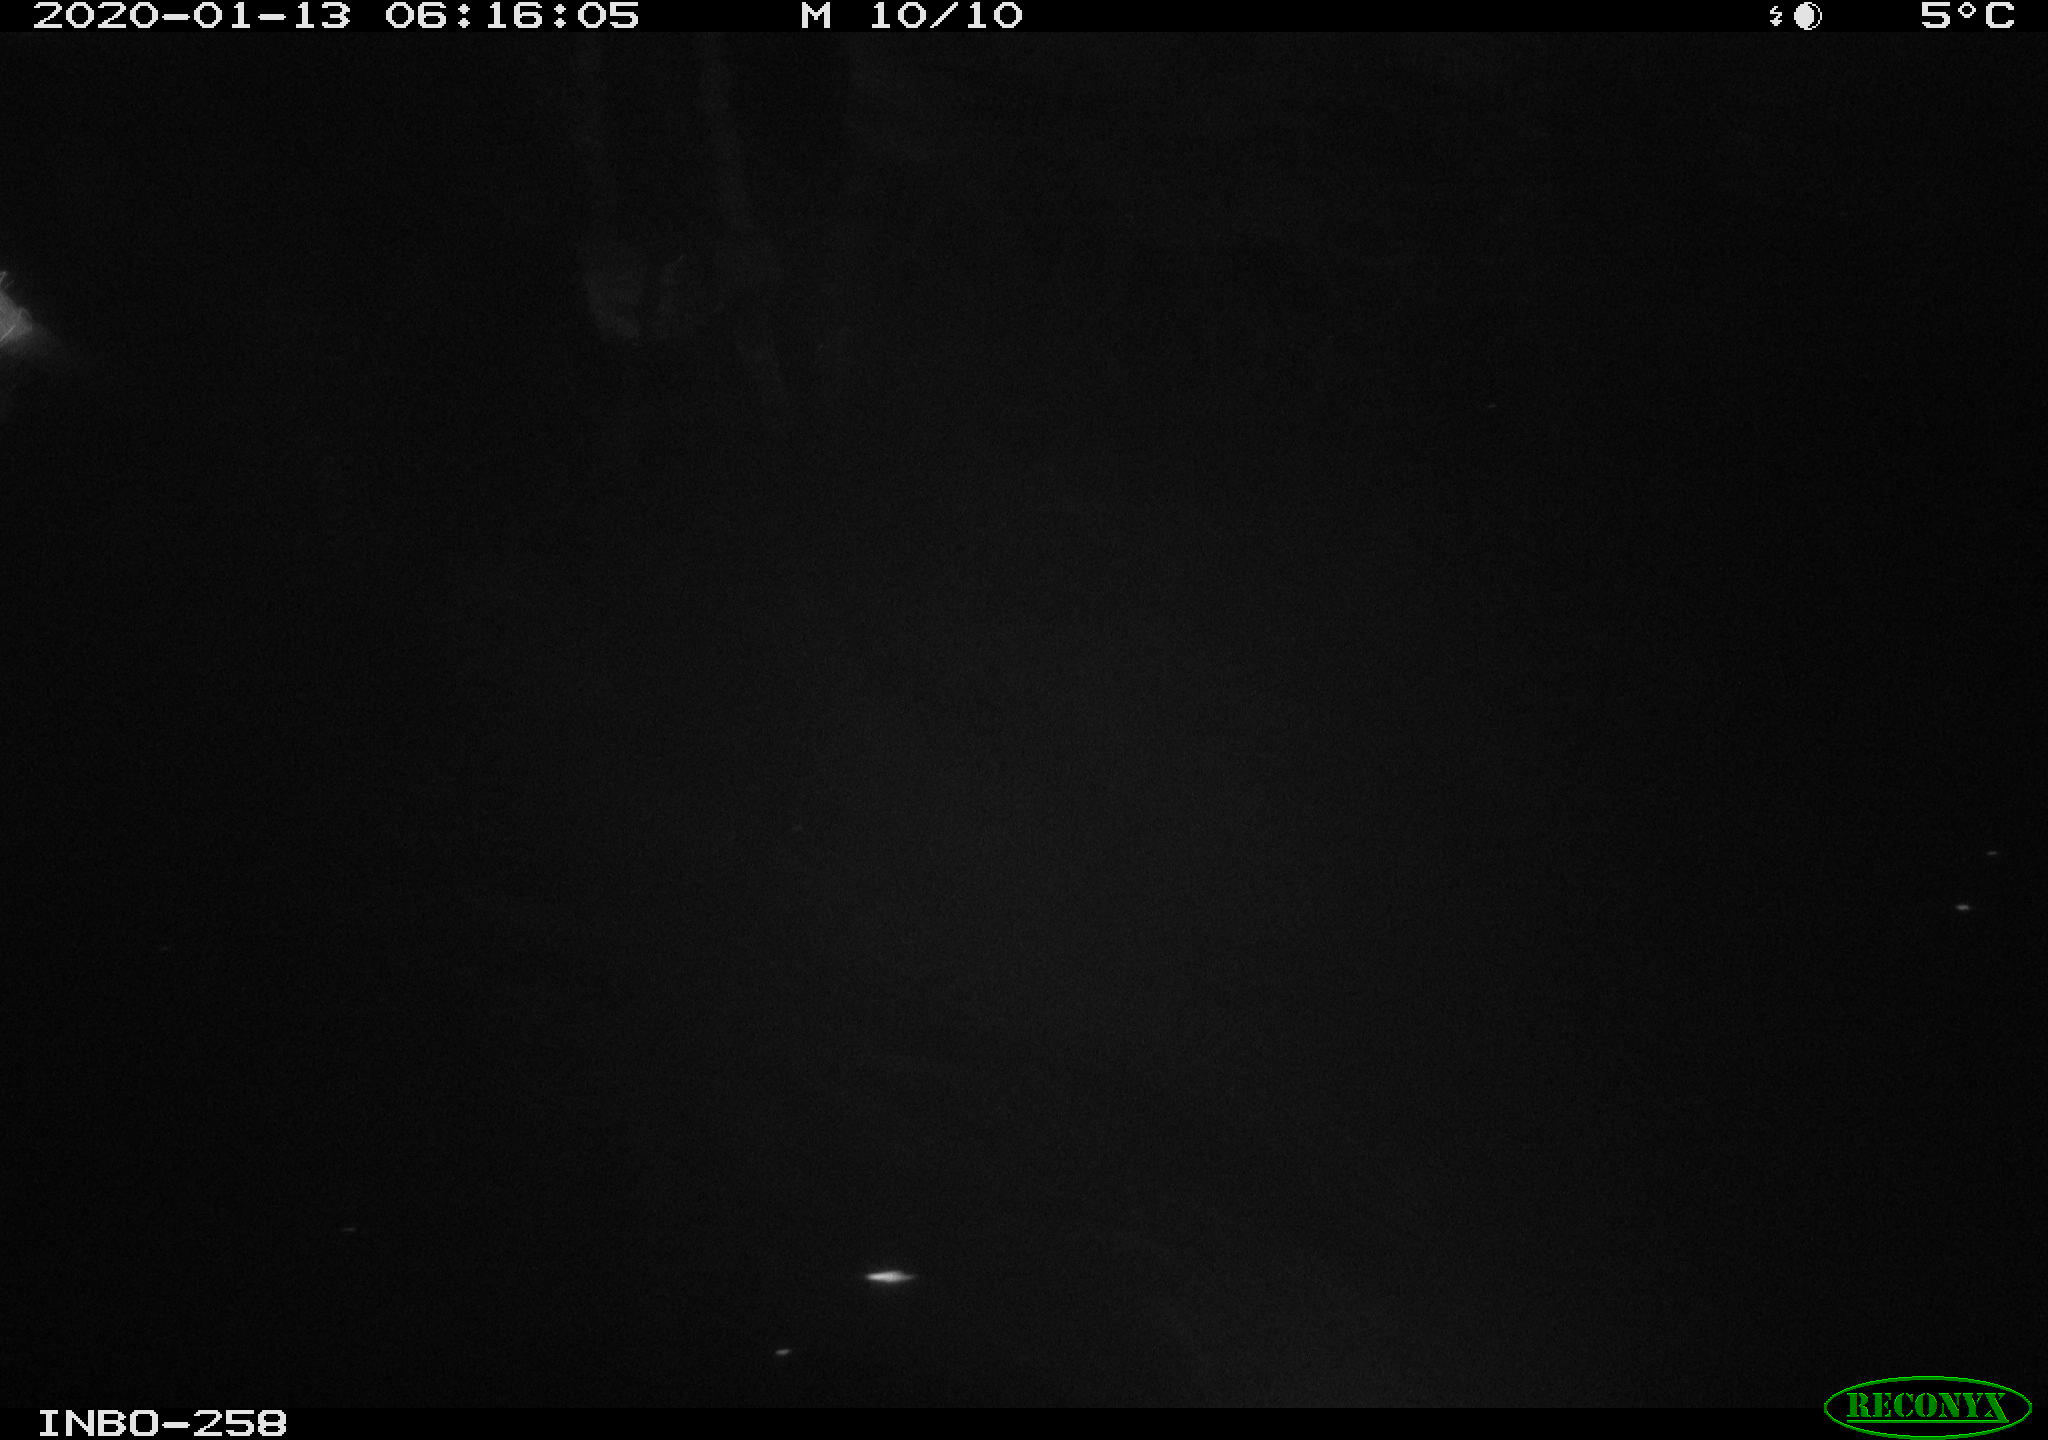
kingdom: Animalia
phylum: Chordata
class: Aves
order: Anseriformes
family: Anatidae
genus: Anas
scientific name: Anas platyrhynchos
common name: Mallard
